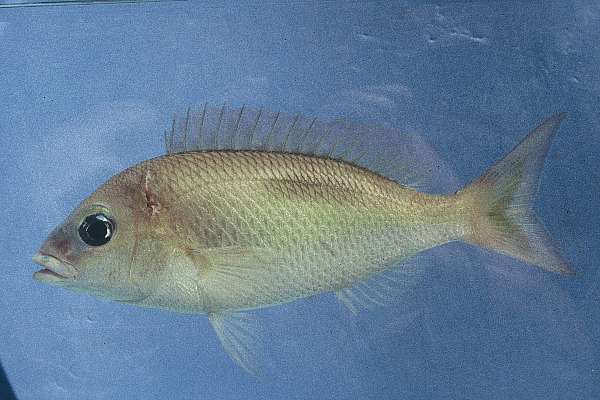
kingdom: Animalia
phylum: Chordata
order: Perciformes
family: Nemipteridae
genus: Scolopsis
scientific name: Scolopsis bimaculata
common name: Thumbprint monocle bream
